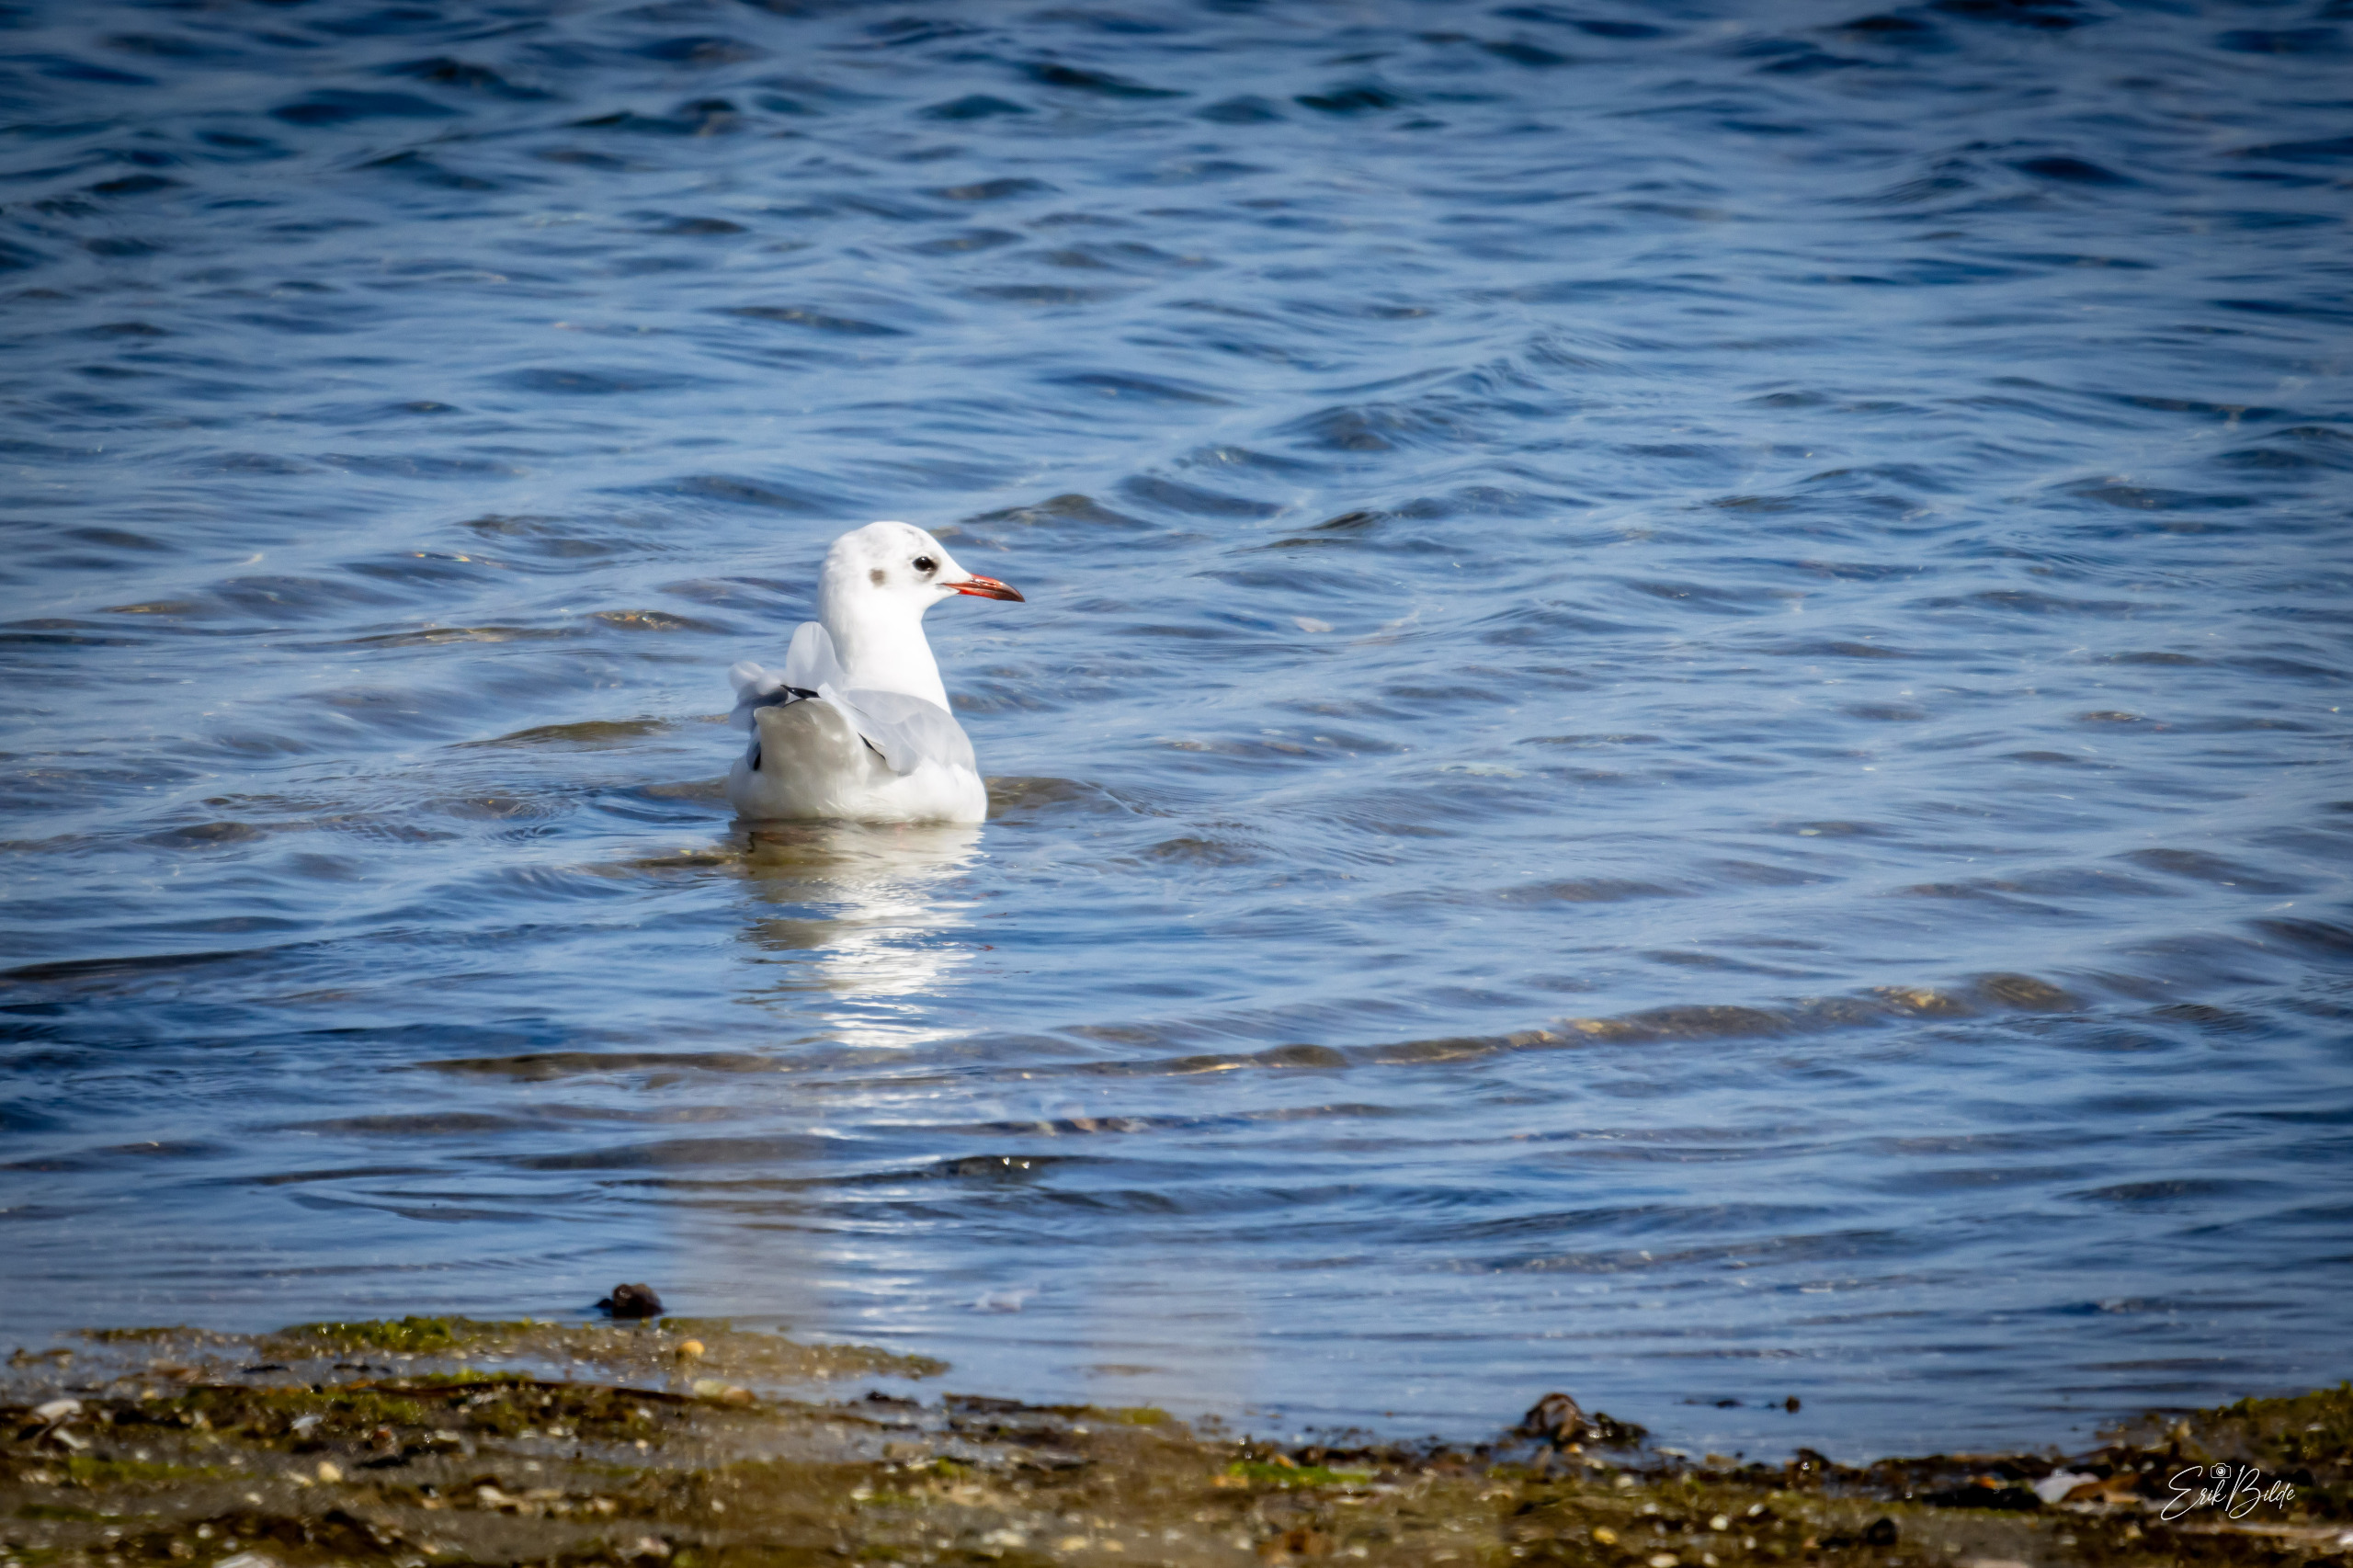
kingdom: Animalia
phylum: Chordata
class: Aves
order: Charadriiformes
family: Laridae
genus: Chroicocephalus
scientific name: Chroicocephalus ridibundus
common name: Hættemåge
